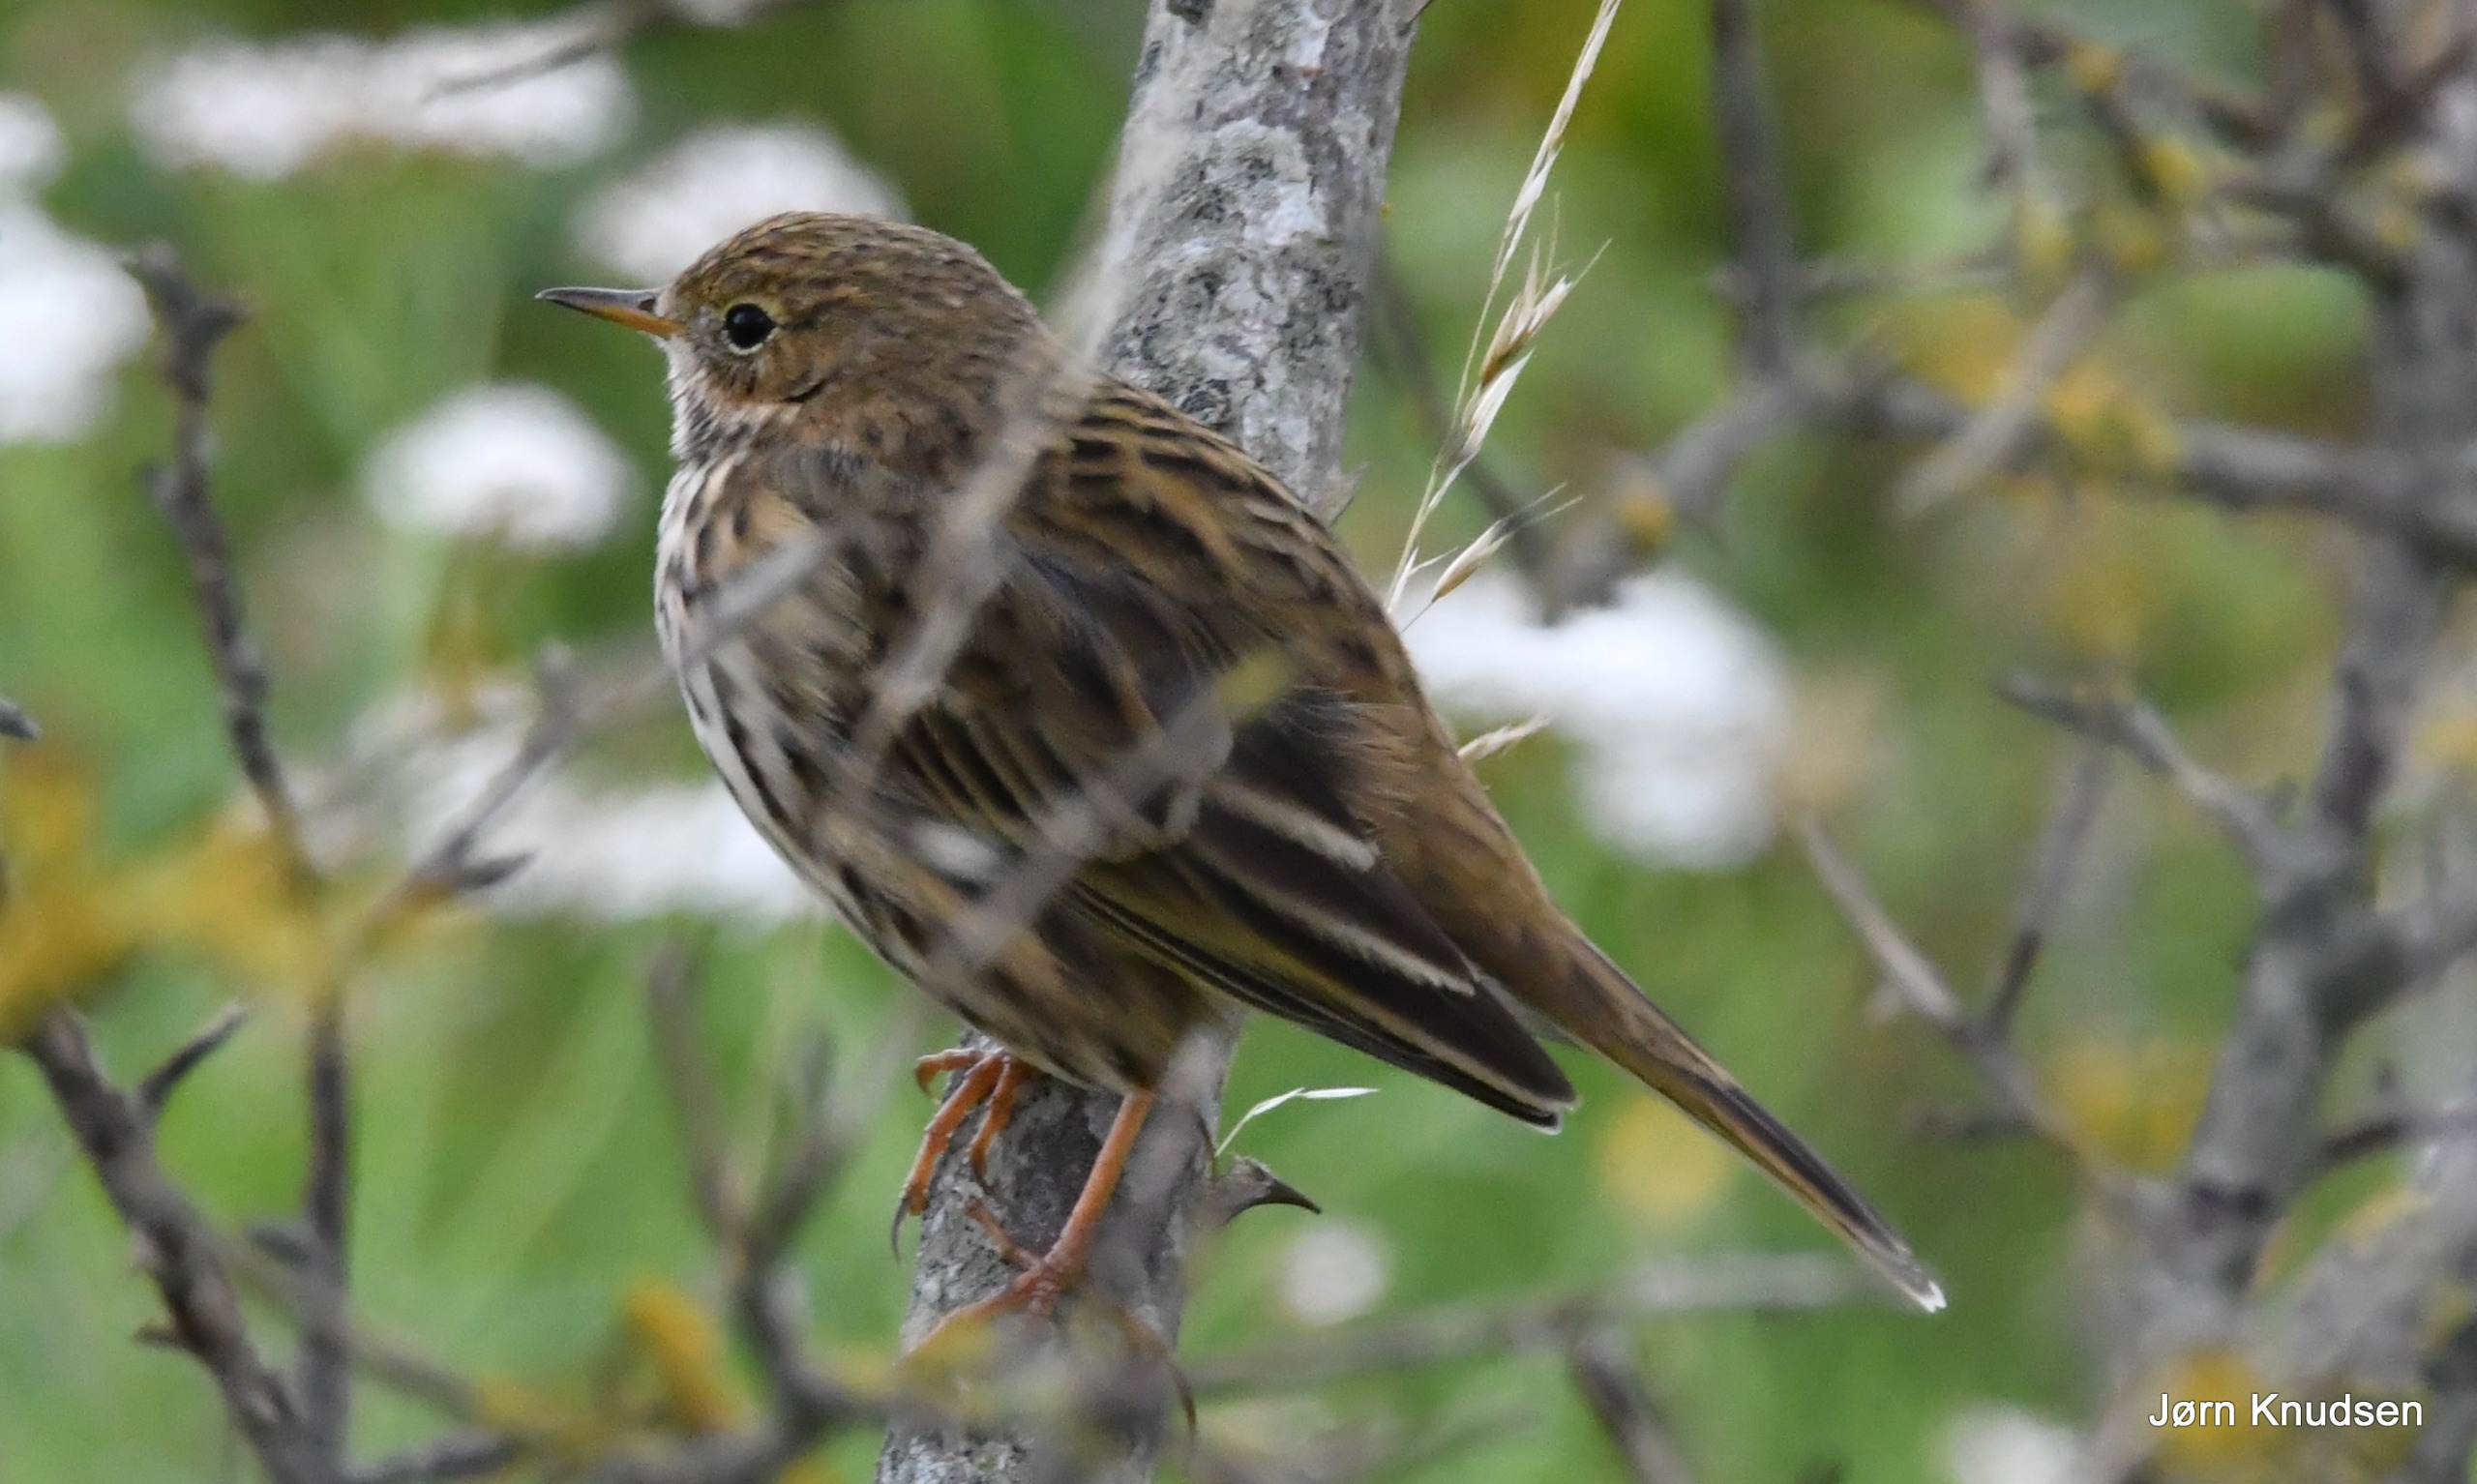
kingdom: Animalia
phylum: Chordata
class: Aves
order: Passeriformes
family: Motacillidae
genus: Anthus
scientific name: Anthus pratensis
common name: Engpiber
